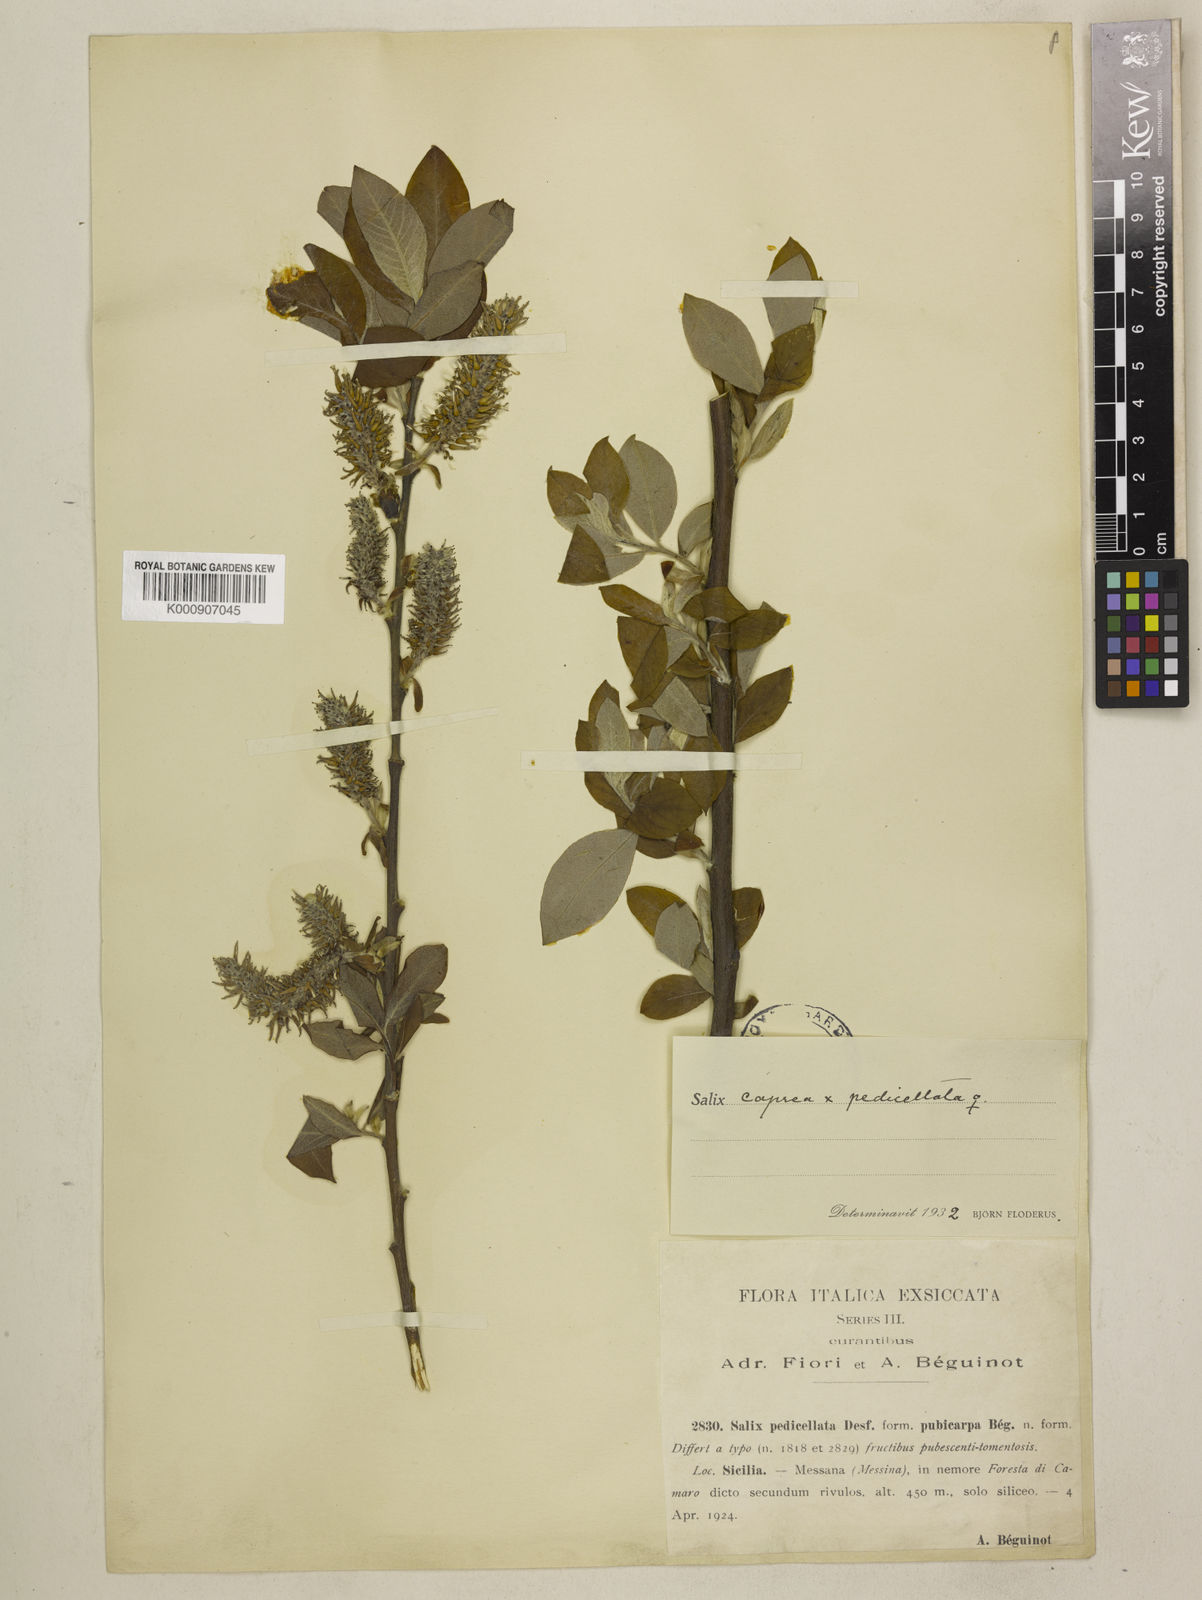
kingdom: Plantae
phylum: Tracheophyta
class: Magnoliopsida
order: Malpighiales
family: Salicaceae
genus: Salix
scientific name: Salix caprea
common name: Goat willow
